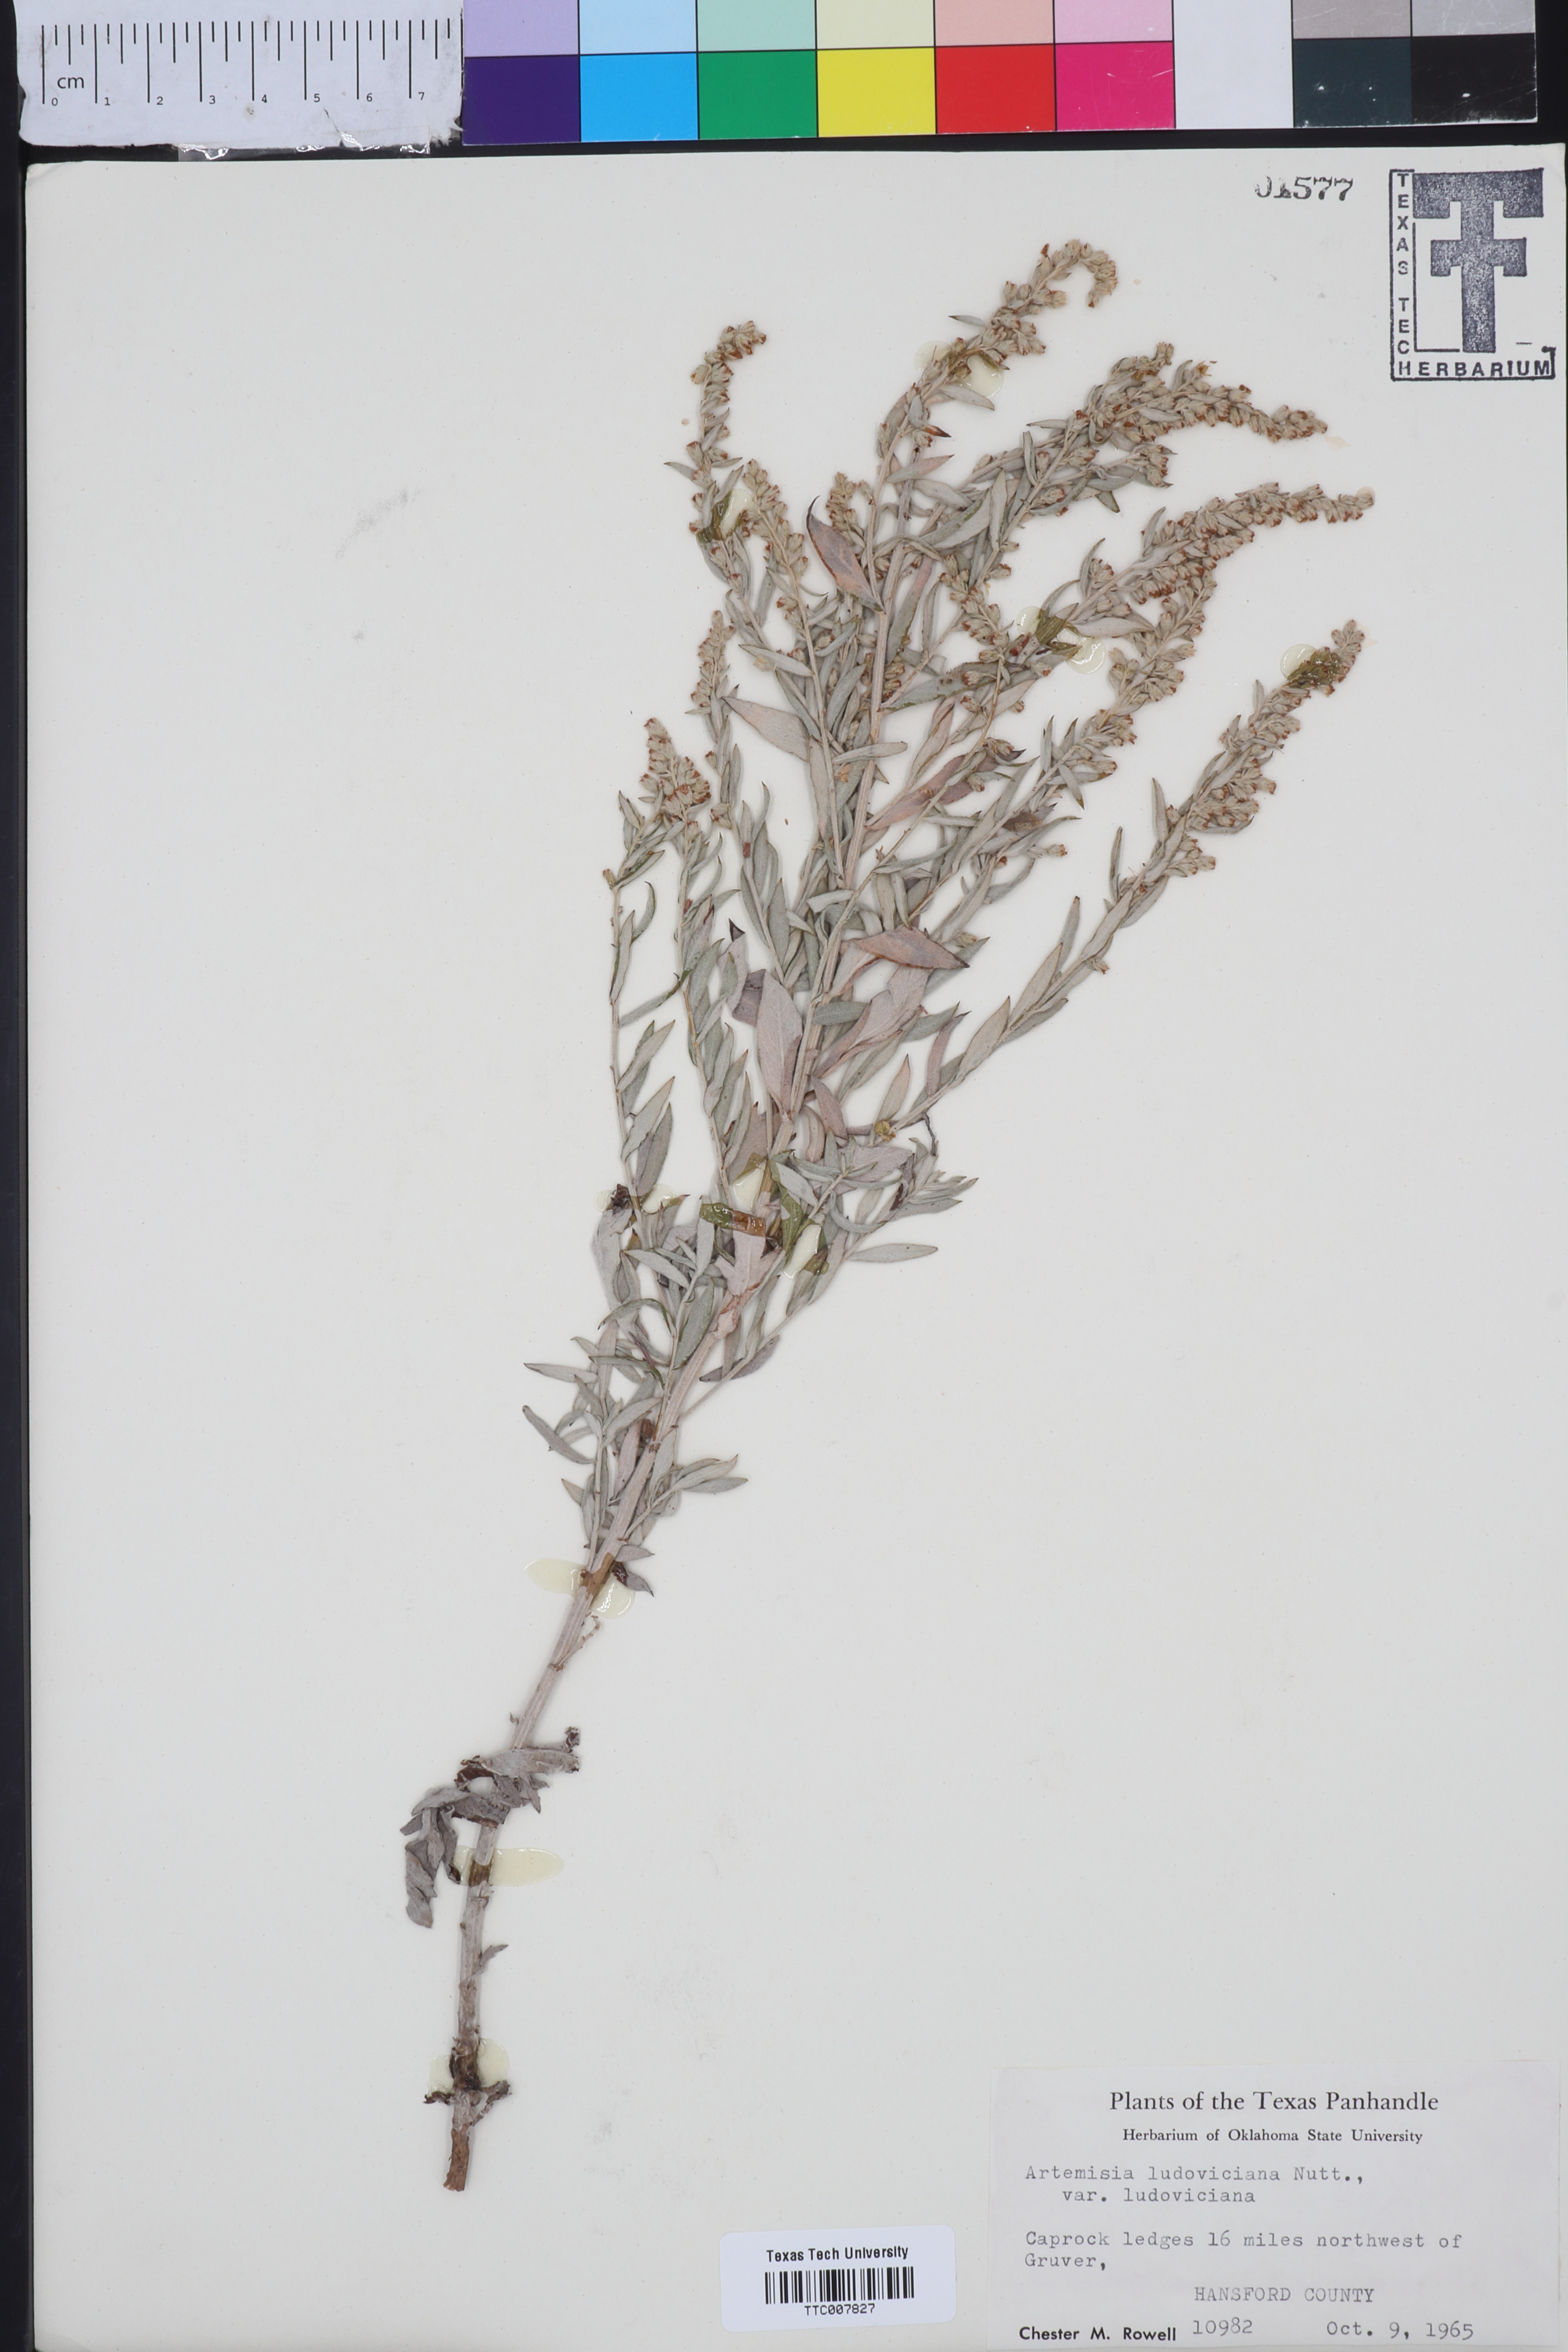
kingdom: Plantae
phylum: Tracheophyta
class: Magnoliopsida
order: Asterales
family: Asteraceae
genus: Artemisia
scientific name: Artemisia ludoviciana
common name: Western mugwort
